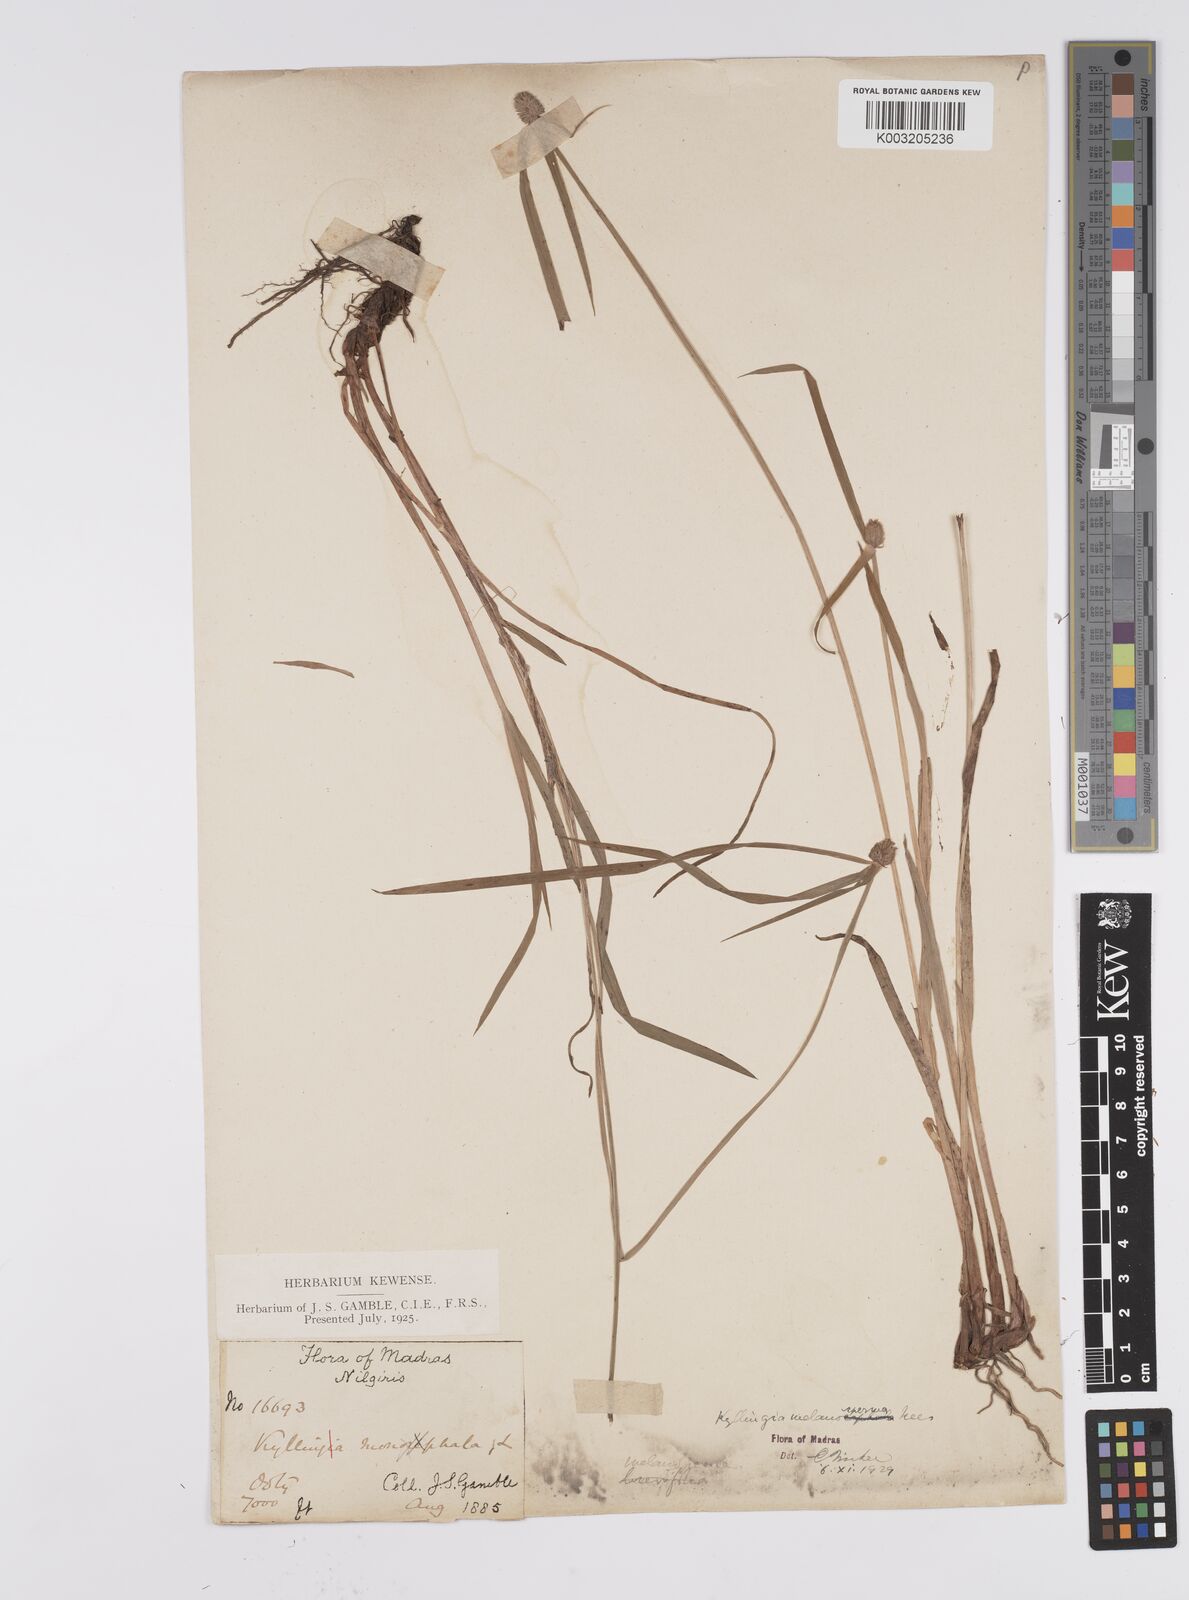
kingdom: Plantae
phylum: Tracheophyta
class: Liliopsida
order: Poales
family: Cyperaceae
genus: Cyperus
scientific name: Cyperus melanospermus
